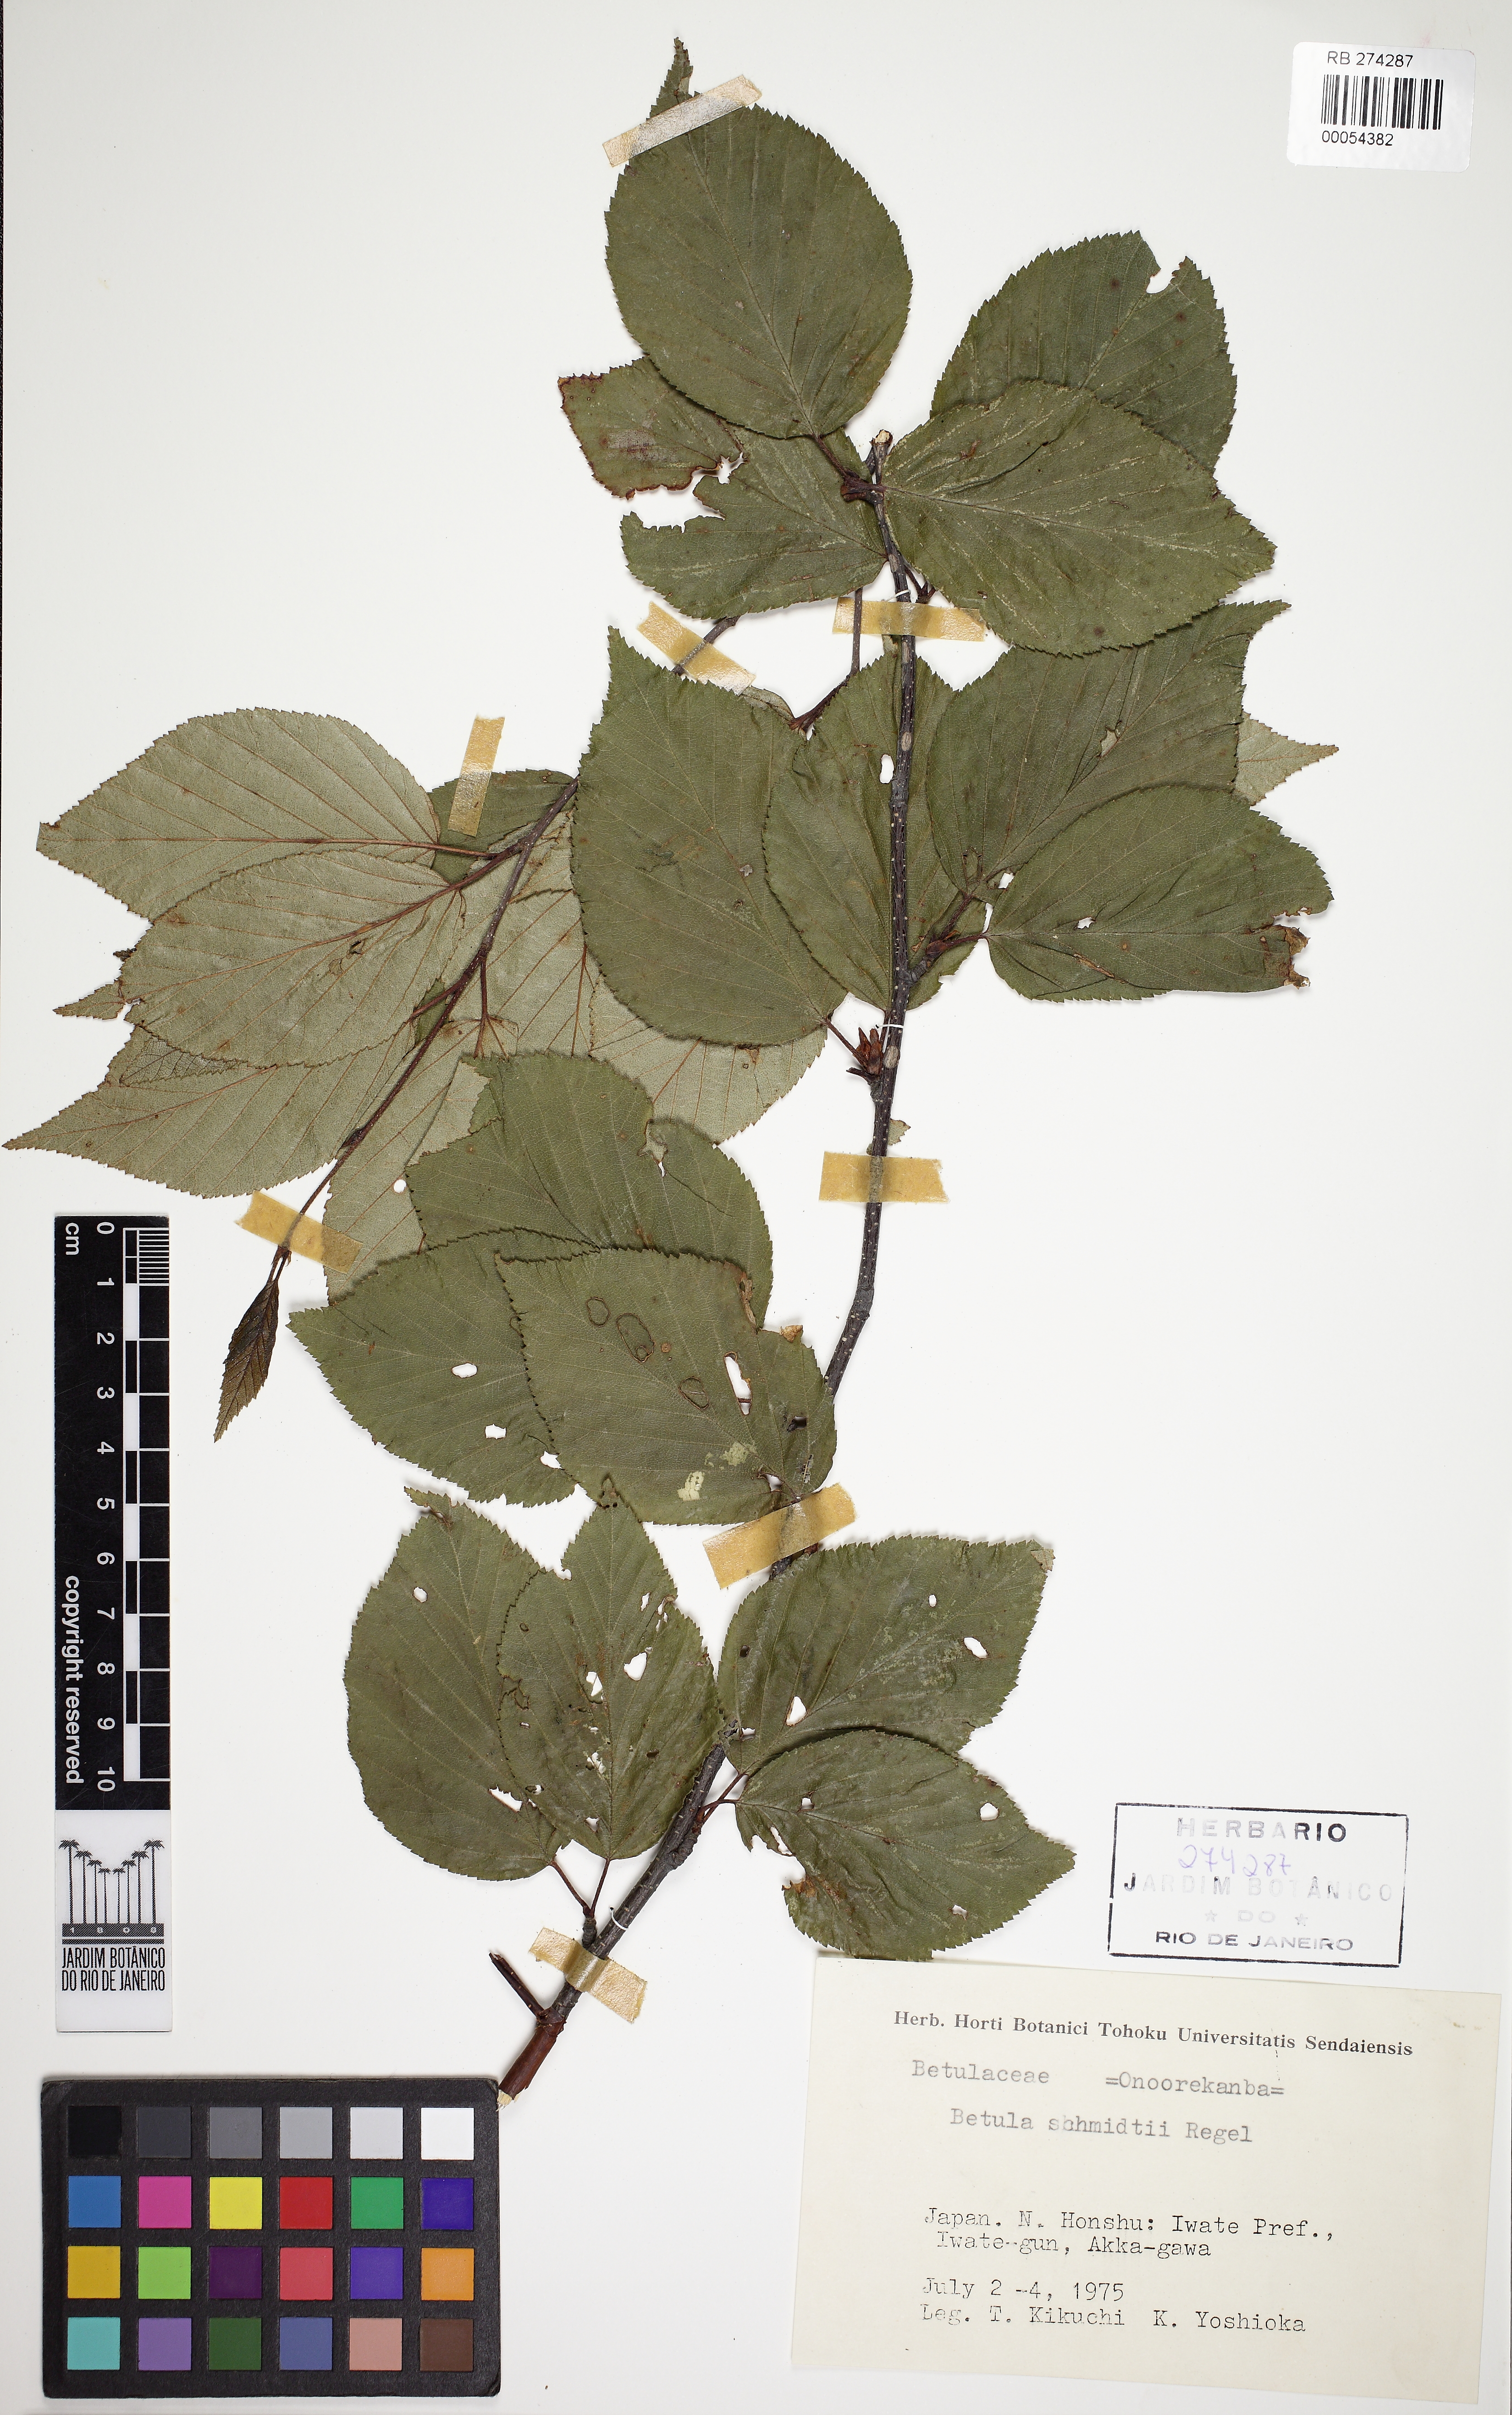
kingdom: Plantae
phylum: Tracheophyta
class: Magnoliopsida
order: Fagales
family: Betulaceae
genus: Betula
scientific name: Betula schmidtii
